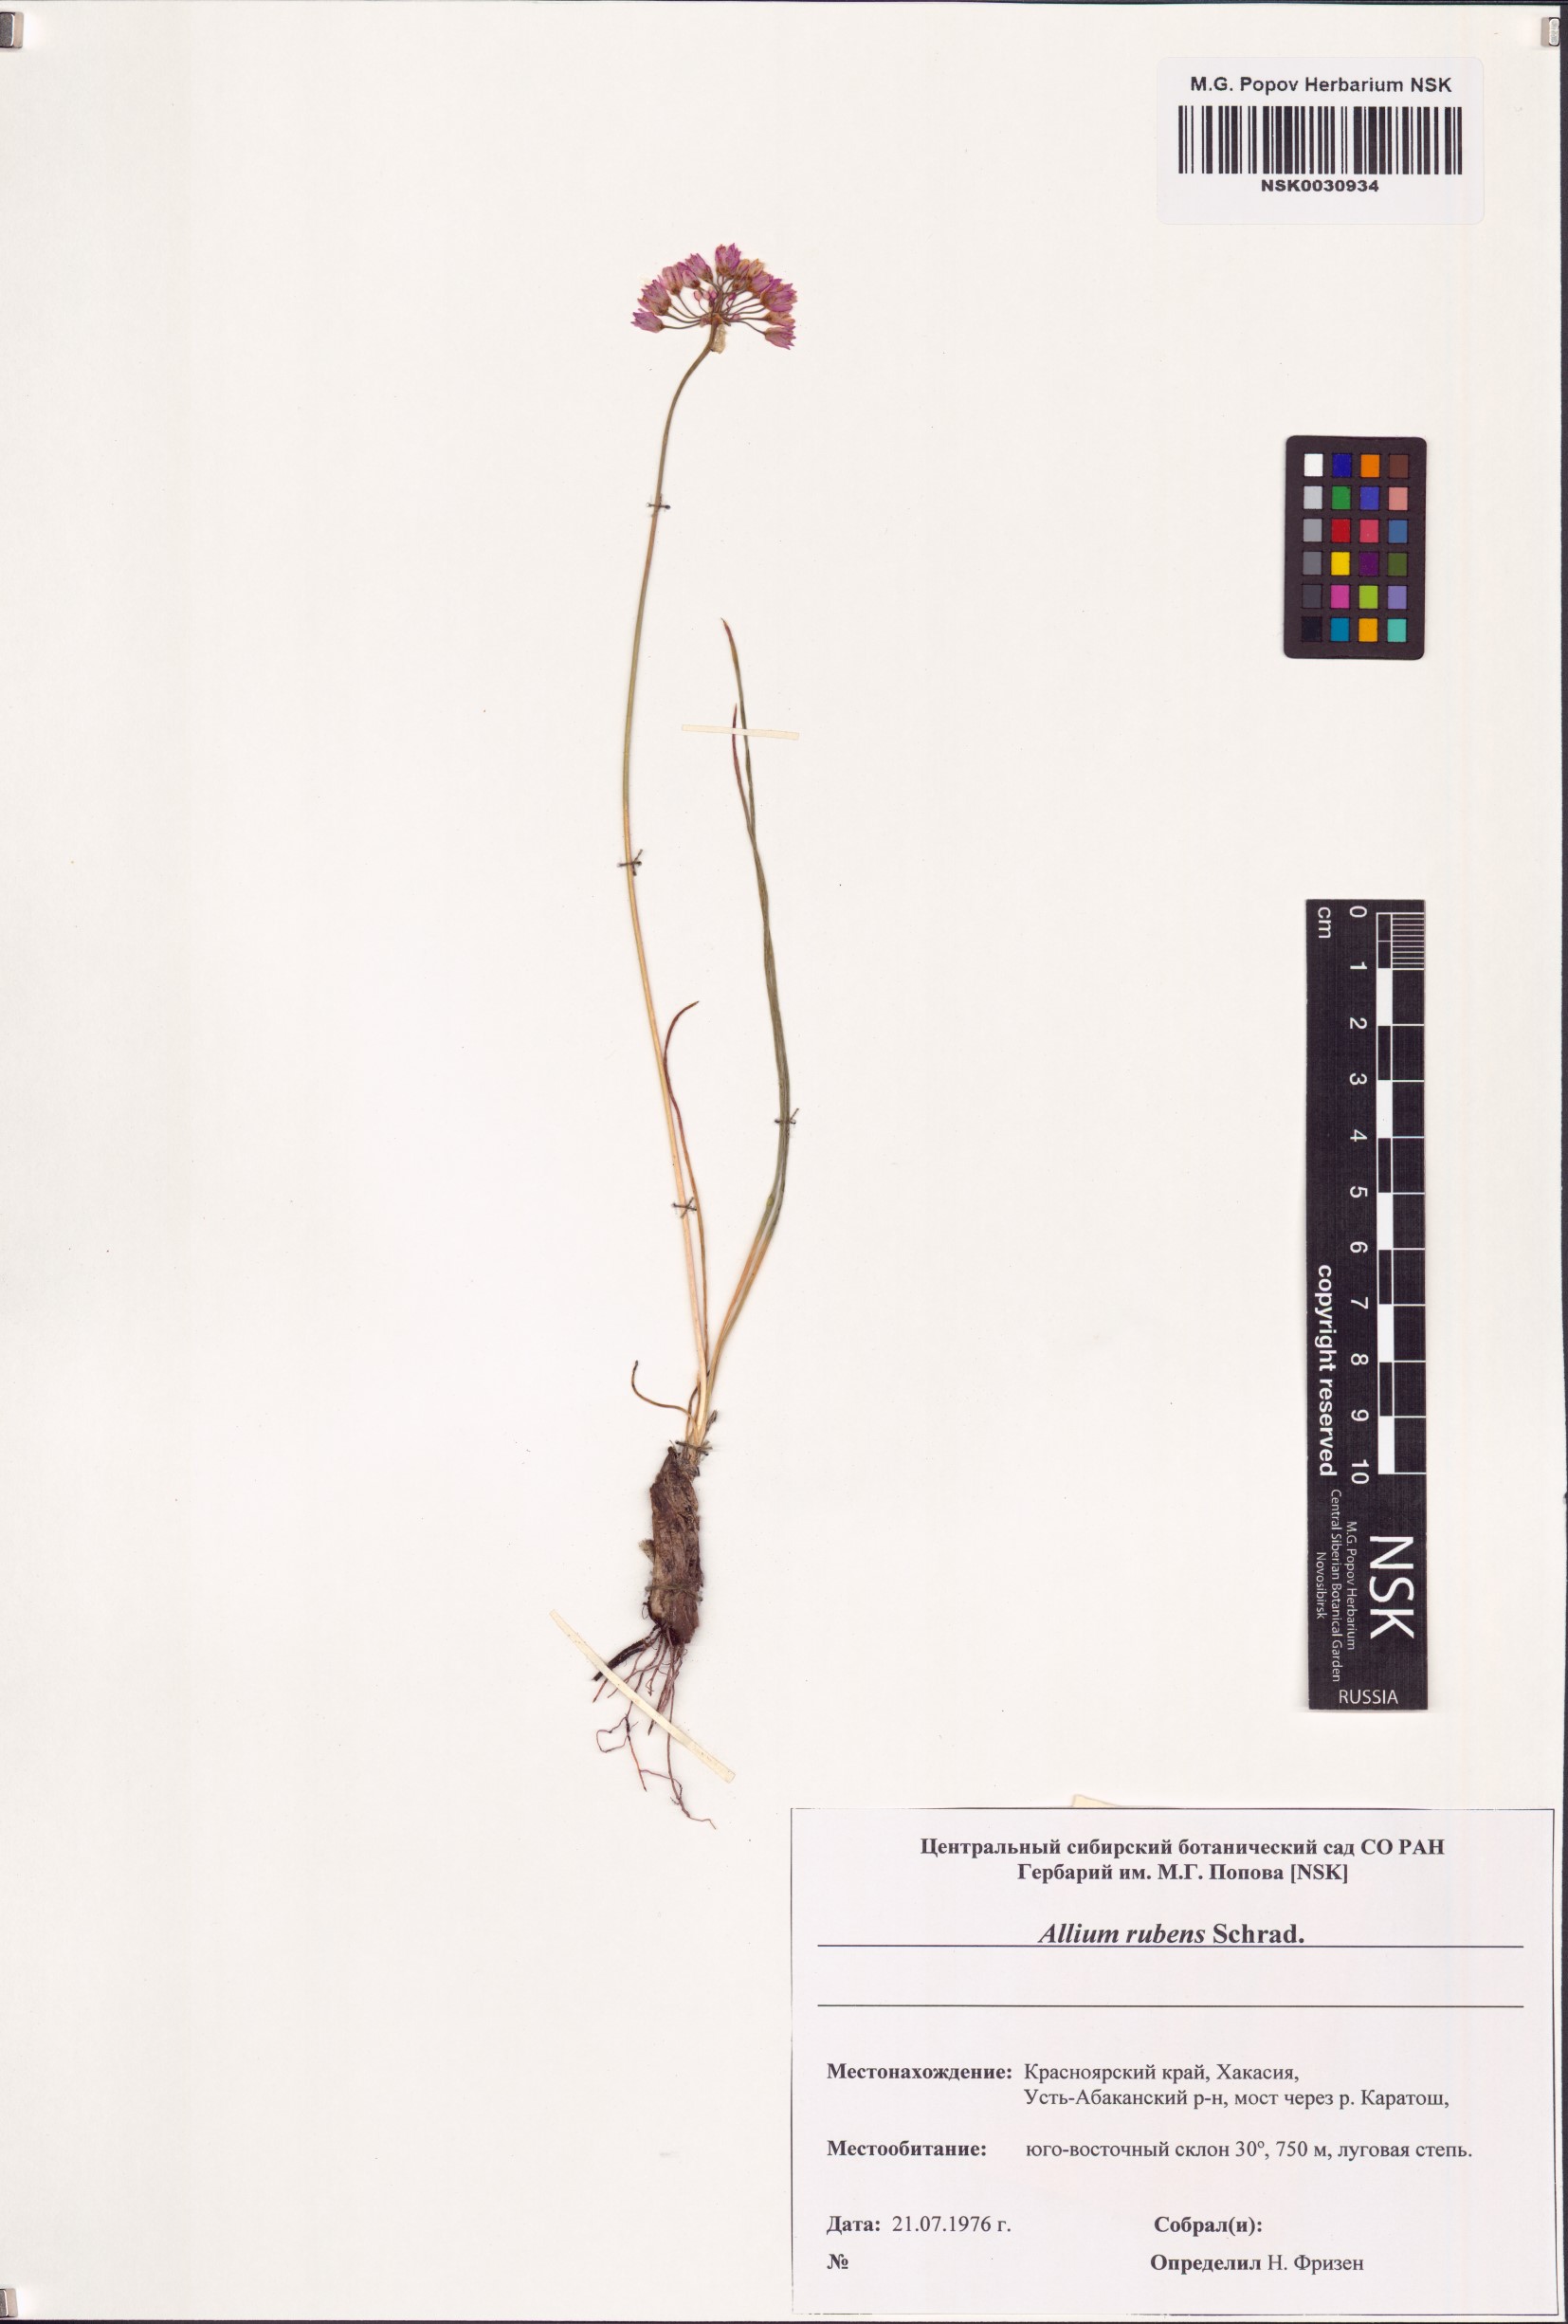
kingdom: Plantae
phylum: Tracheophyta
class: Liliopsida
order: Asparagales
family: Amaryllidaceae
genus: Allium
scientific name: Allium rubens
